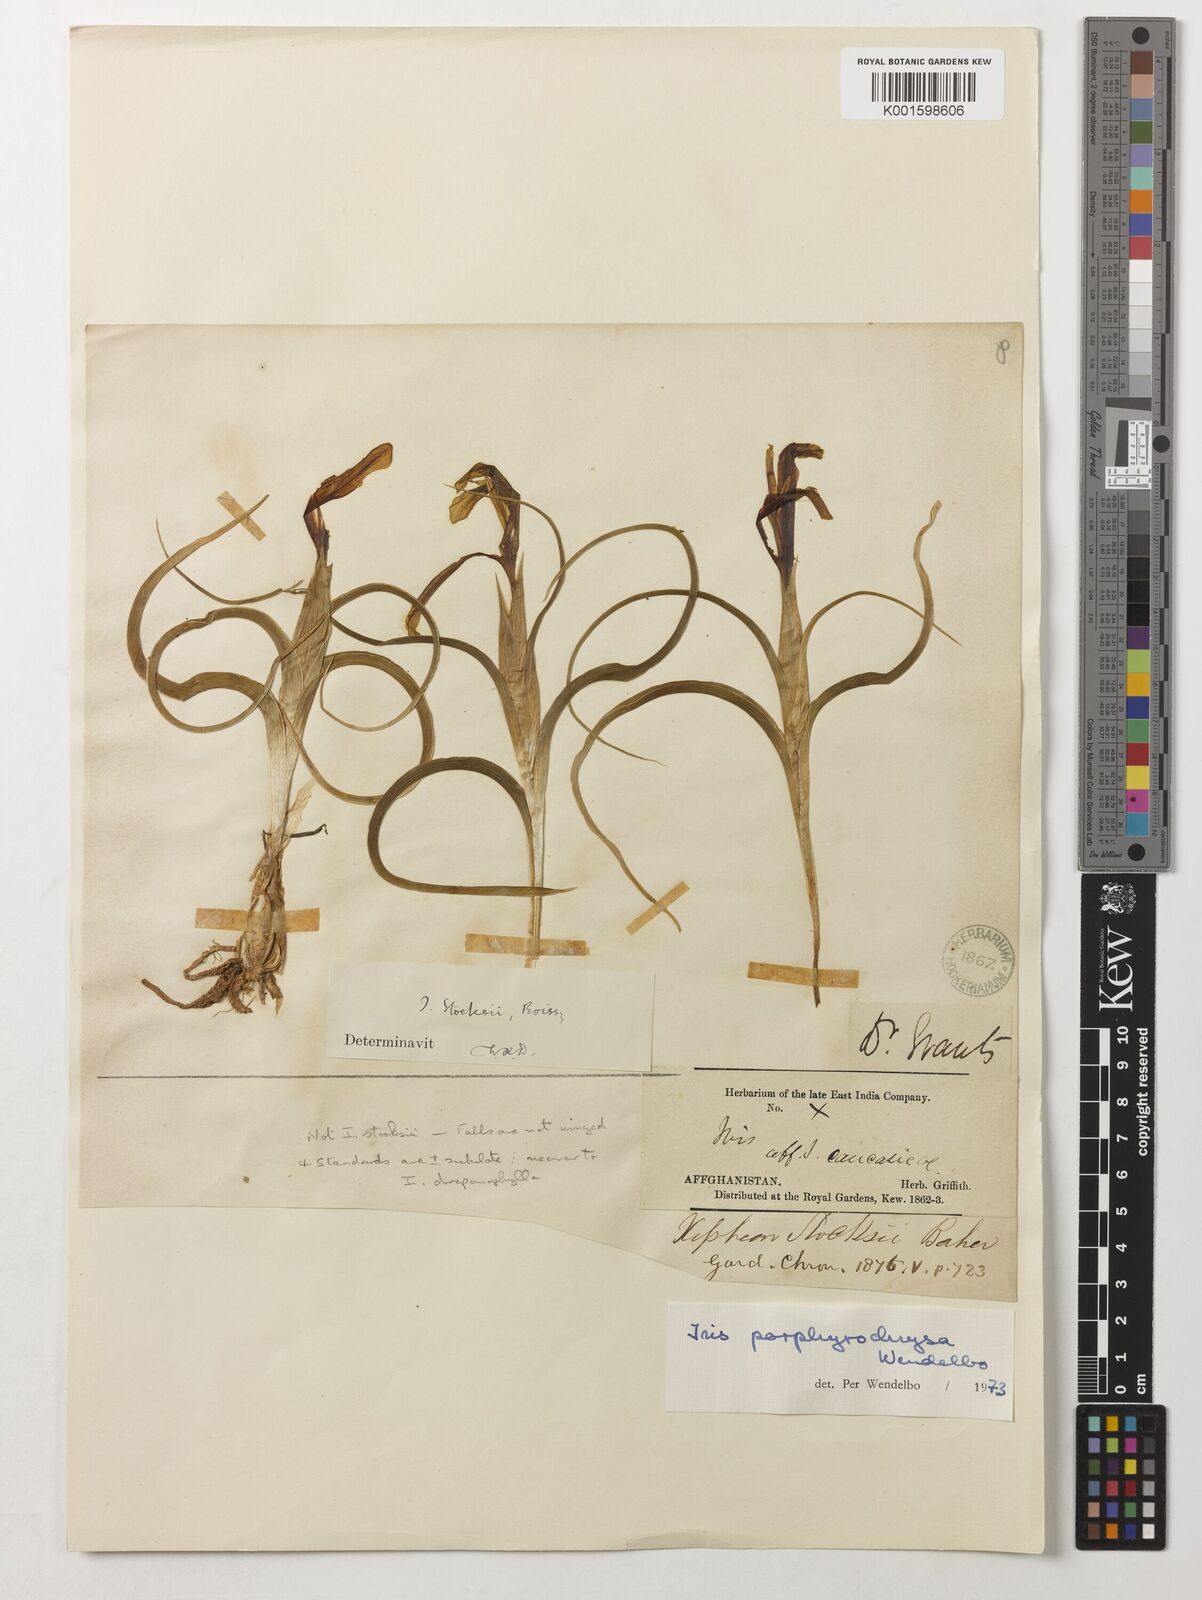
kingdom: Plantae
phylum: Tracheophyta
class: Liliopsida
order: Asparagales
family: Iridaceae
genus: Iris
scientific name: Iris porphyrochrysa
